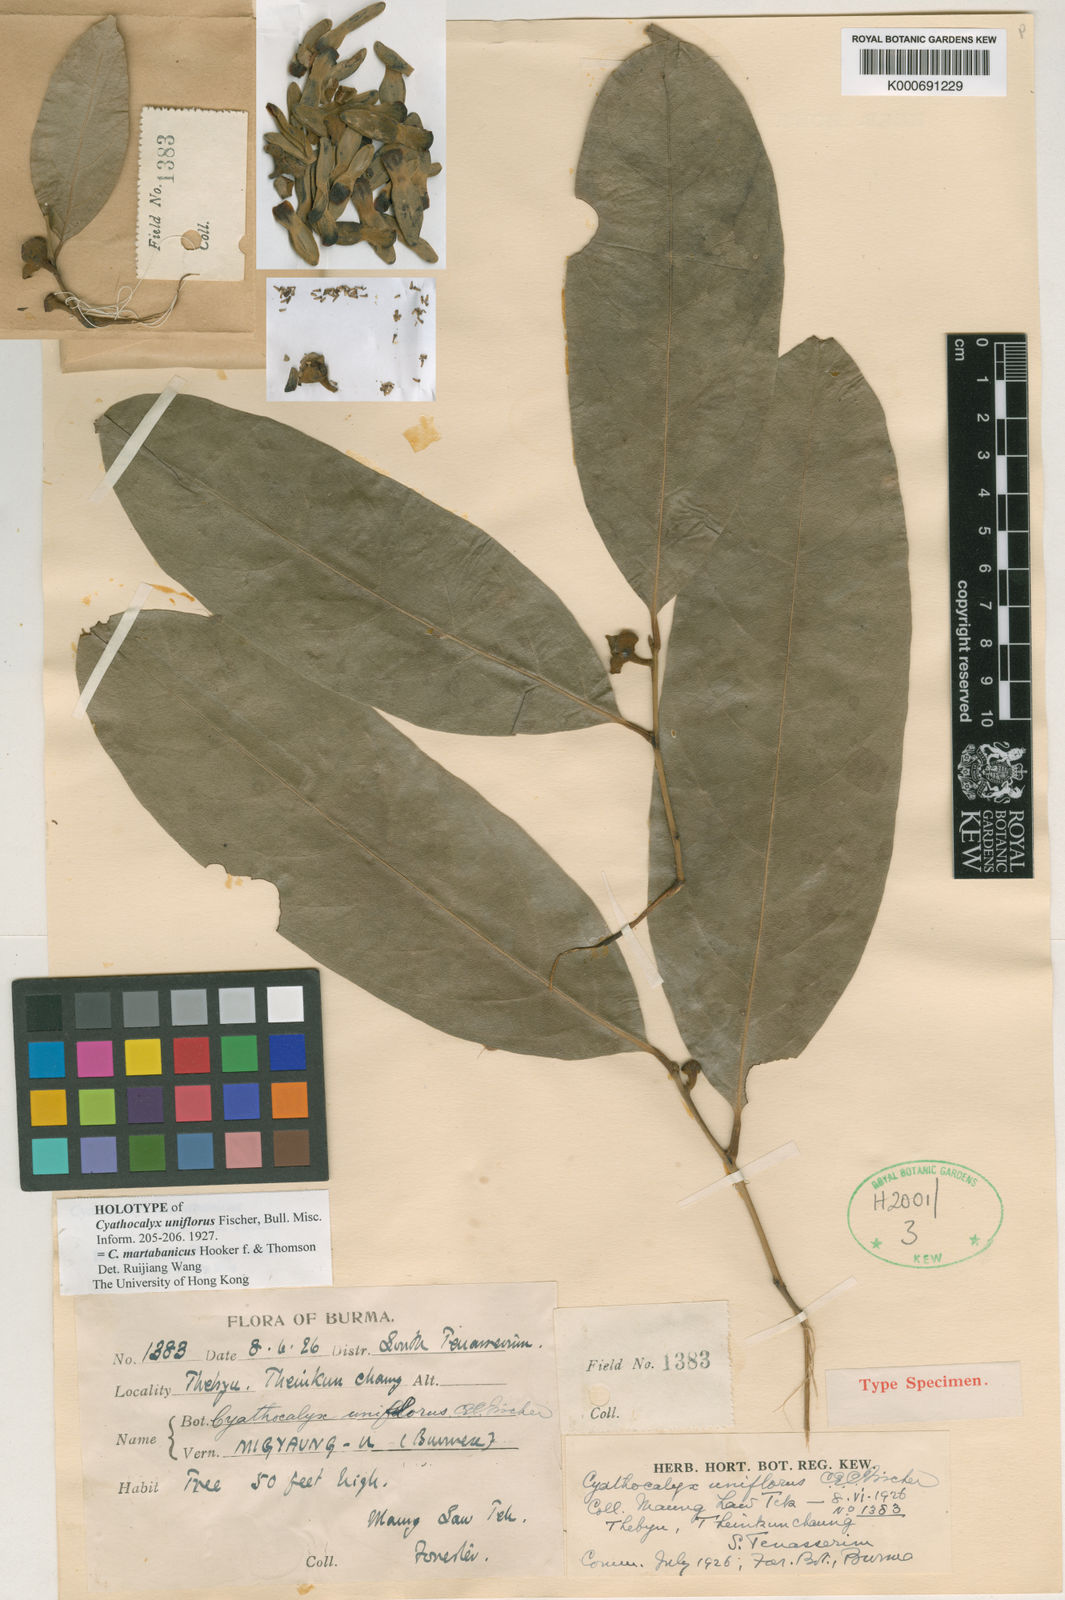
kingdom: Plantae
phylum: Tracheophyta
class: Magnoliopsida
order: Magnoliales
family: Annonaceae
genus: Cyathocalyx
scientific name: Cyathocalyx martabanicus
